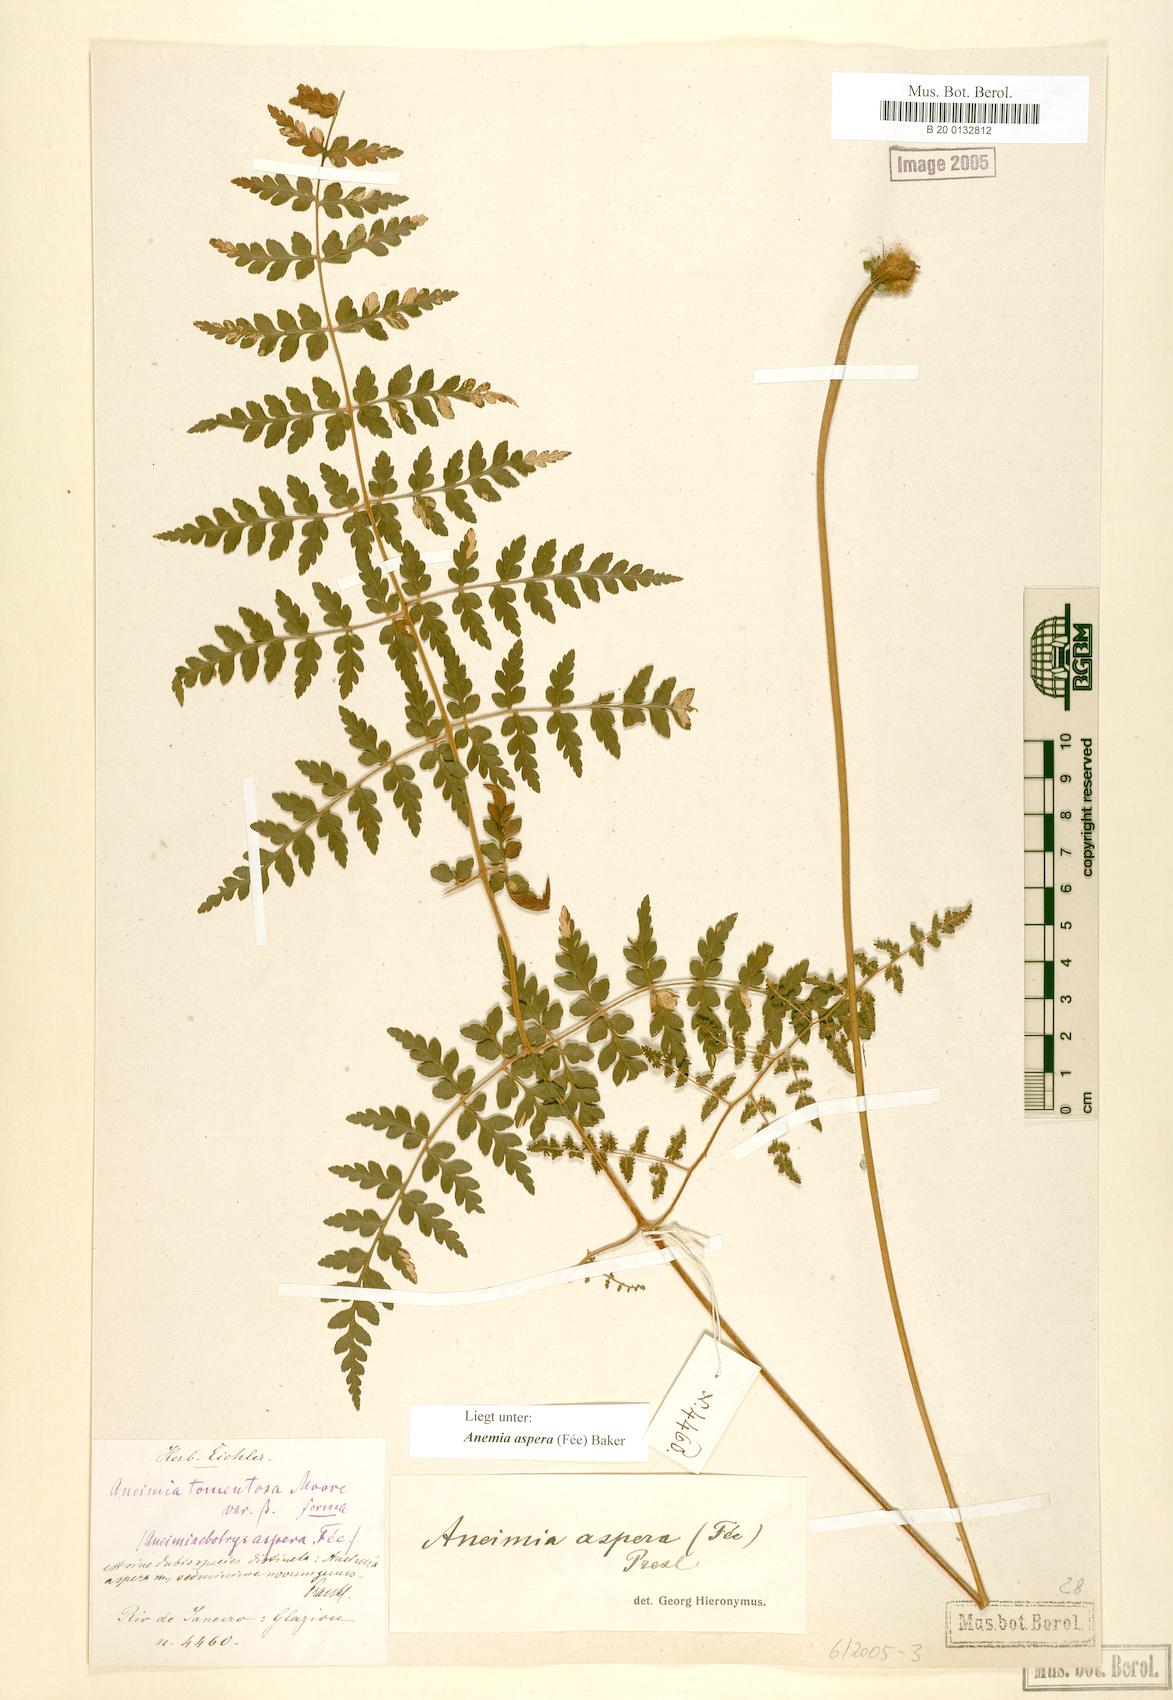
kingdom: Plantae
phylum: Tracheophyta
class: Polypodiopsida
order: Schizaeales
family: Anemiaceae
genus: Anemia
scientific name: Anemia aspera
